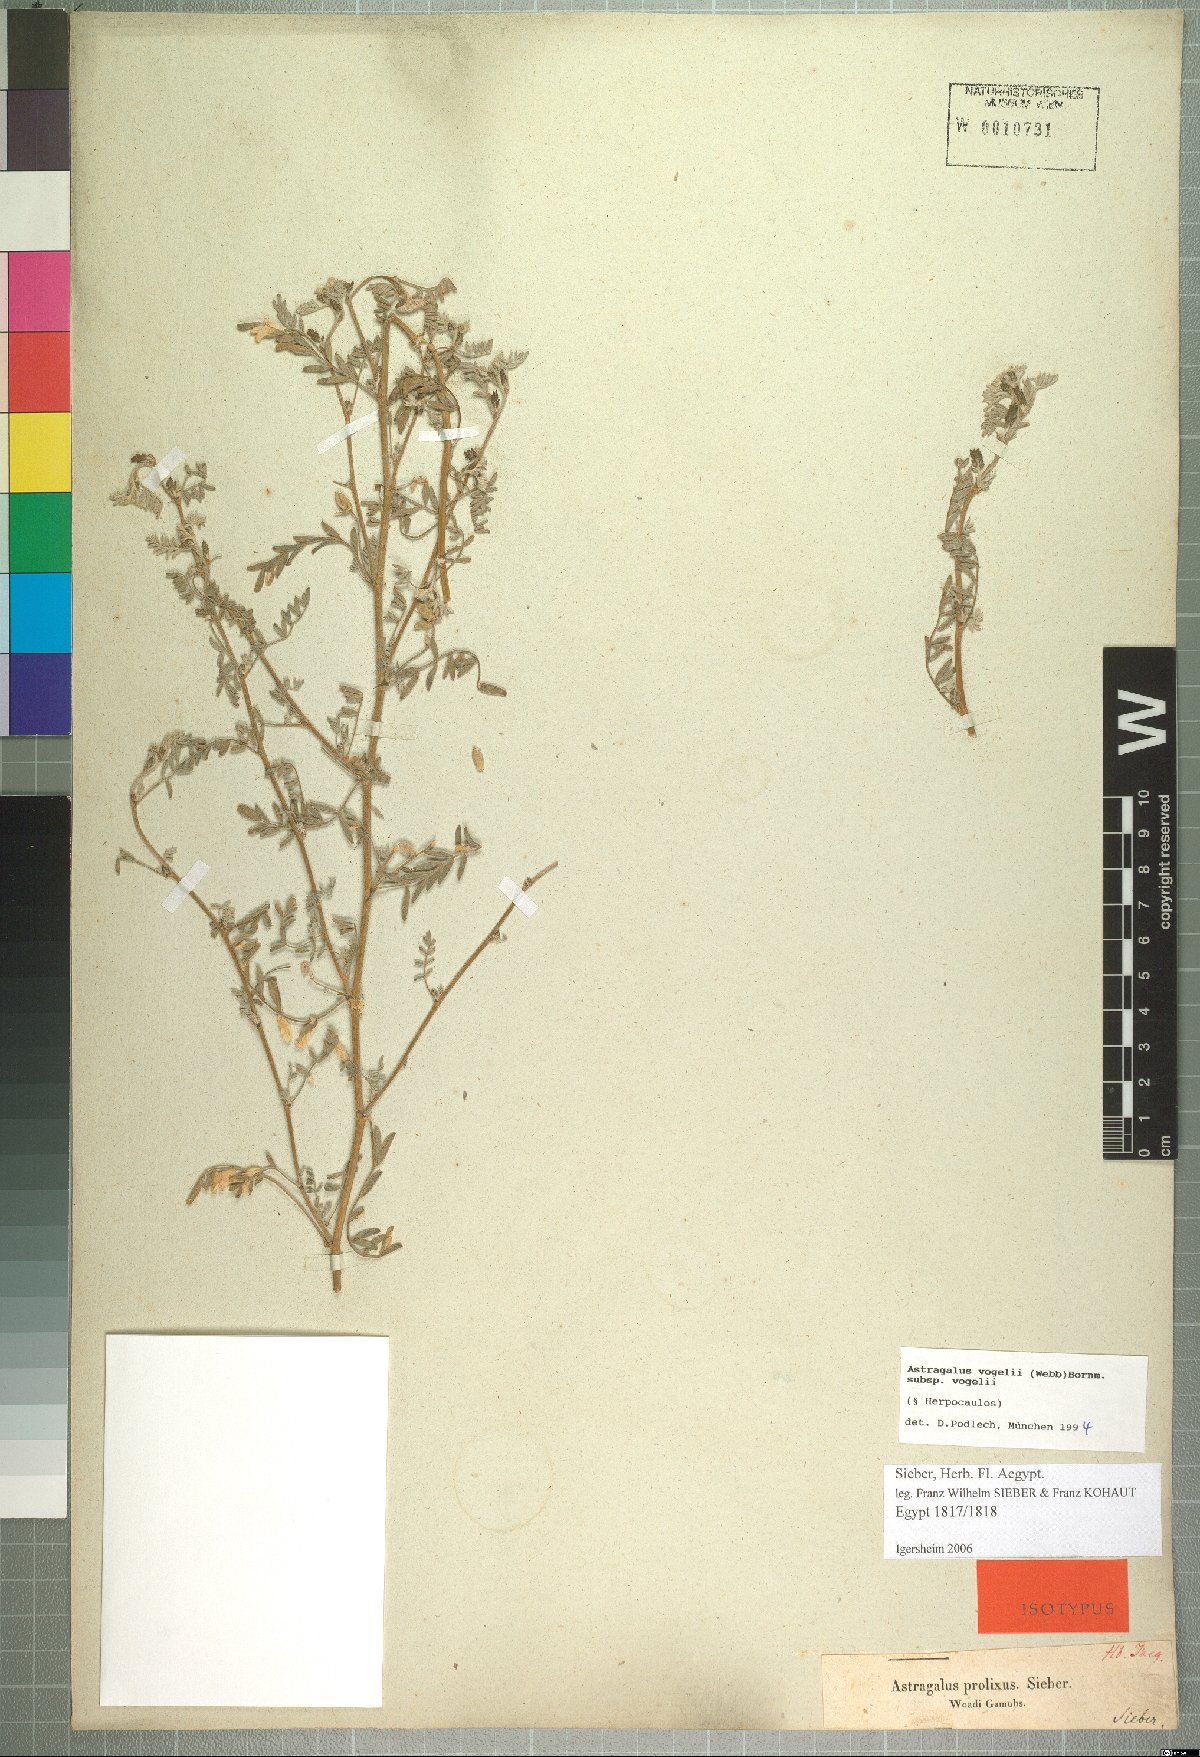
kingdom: Plantae
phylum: Tracheophyta
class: Magnoliopsida
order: Fabales
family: Fabaceae
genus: Astragalus
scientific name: Astragalus vogelii
